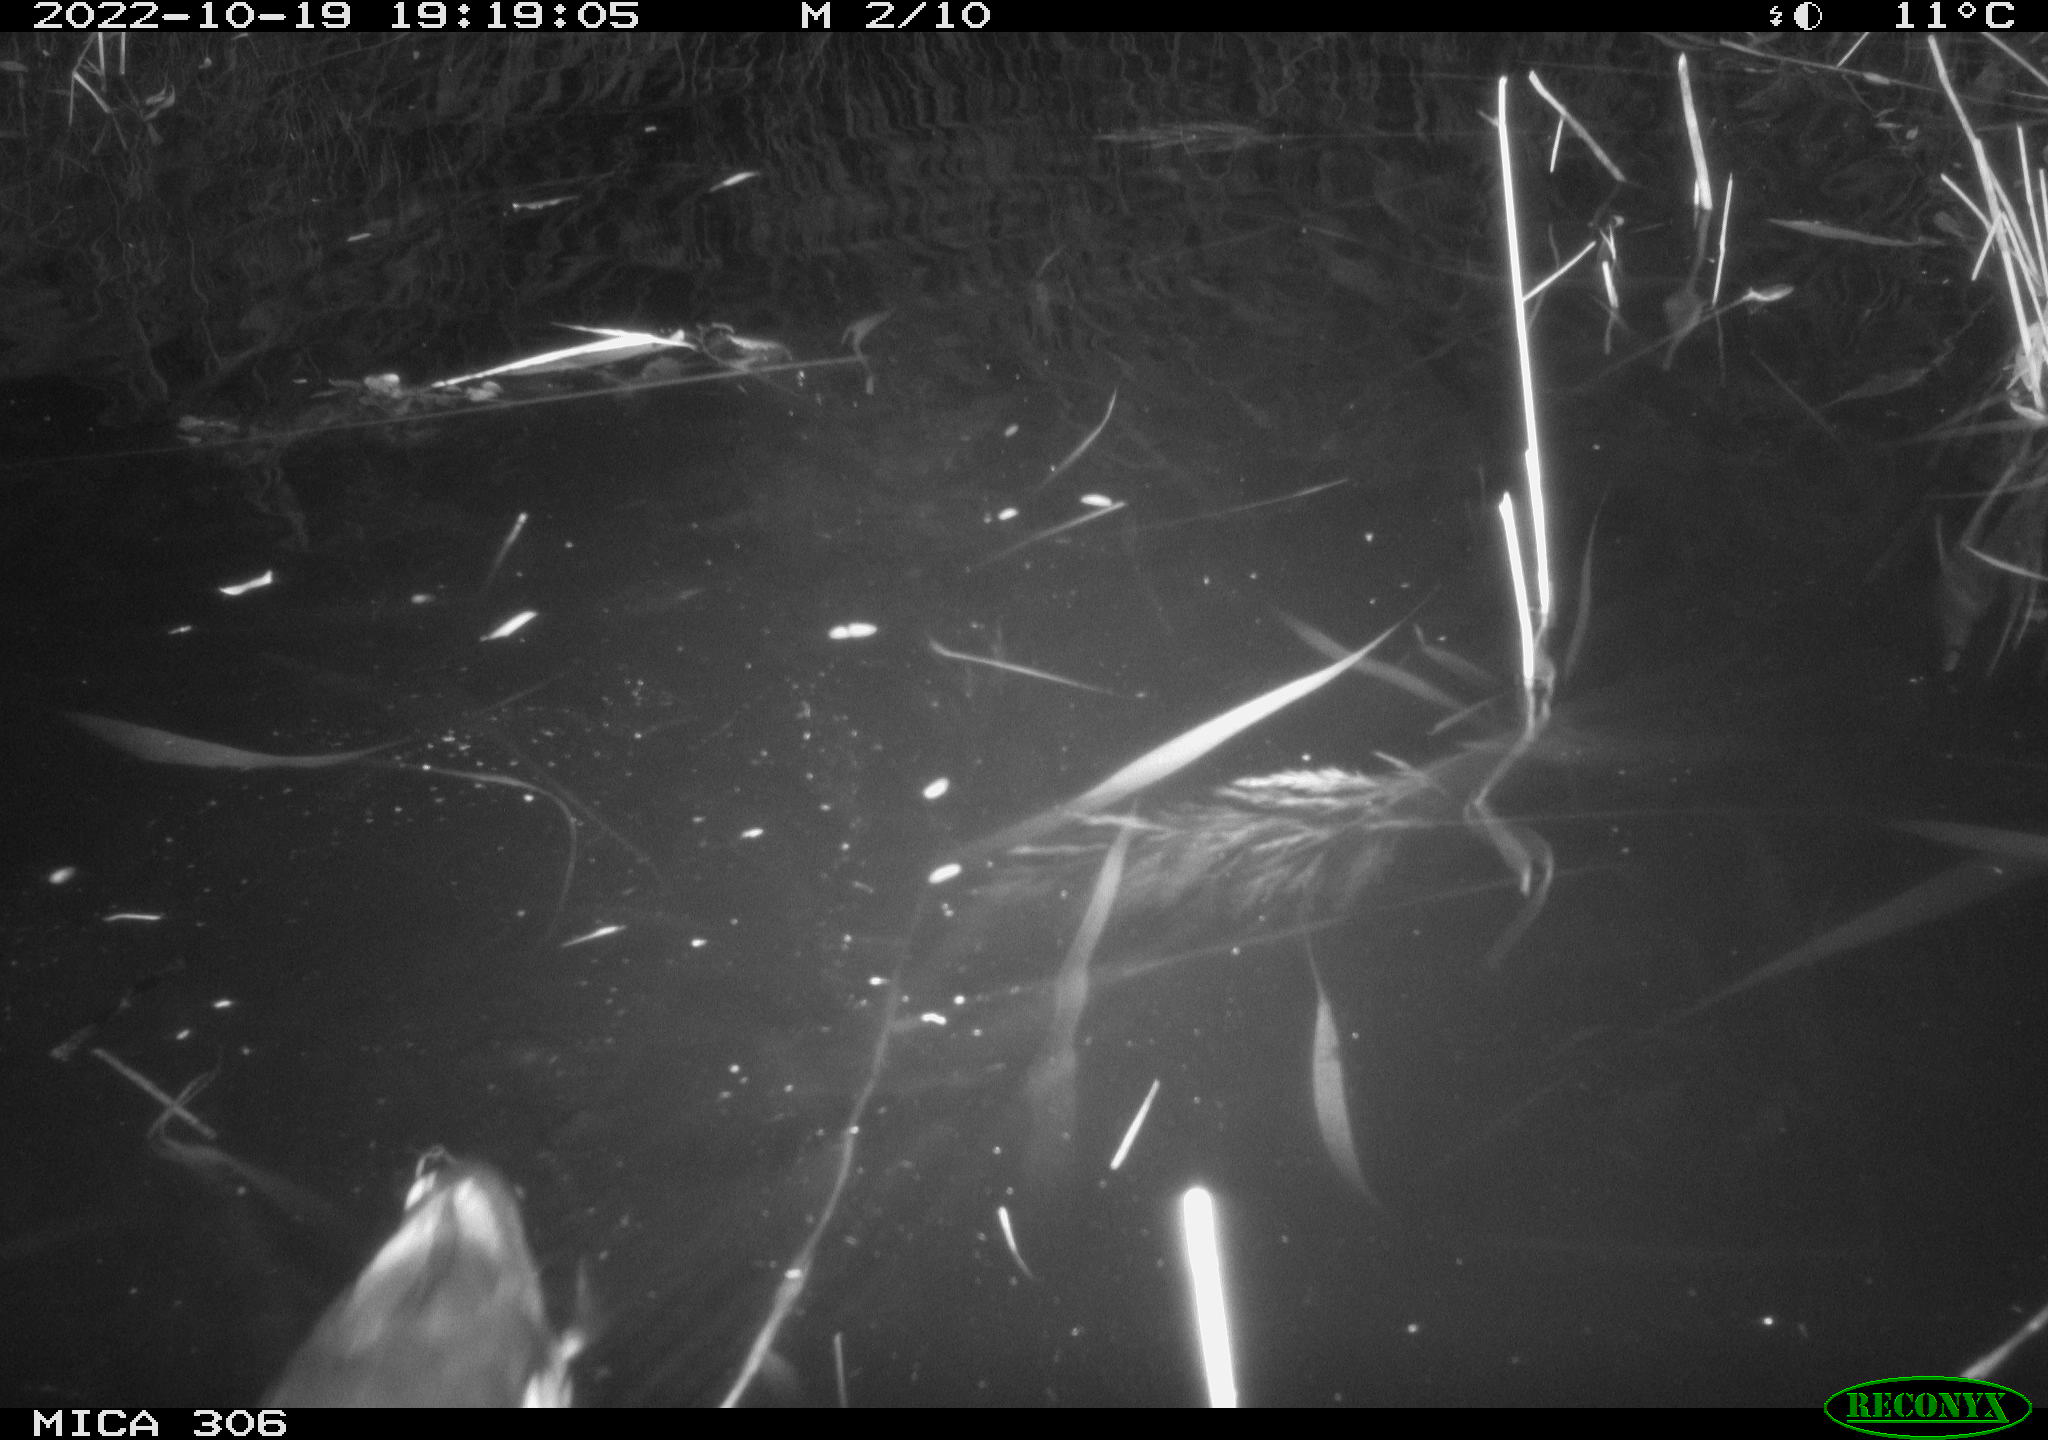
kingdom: Animalia
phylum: Chordata
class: Mammalia
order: Rodentia
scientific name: Rodentia
